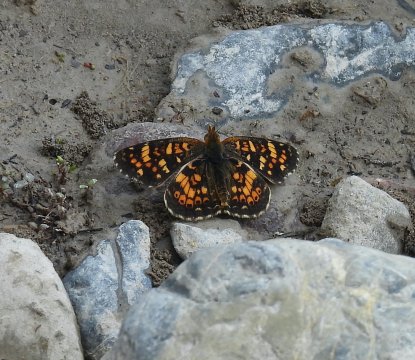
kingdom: Animalia
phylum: Arthropoda
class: Insecta
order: Lepidoptera
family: Nymphalidae
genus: Phyciodes
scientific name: Phyciodes tharos
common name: Field Crescent
